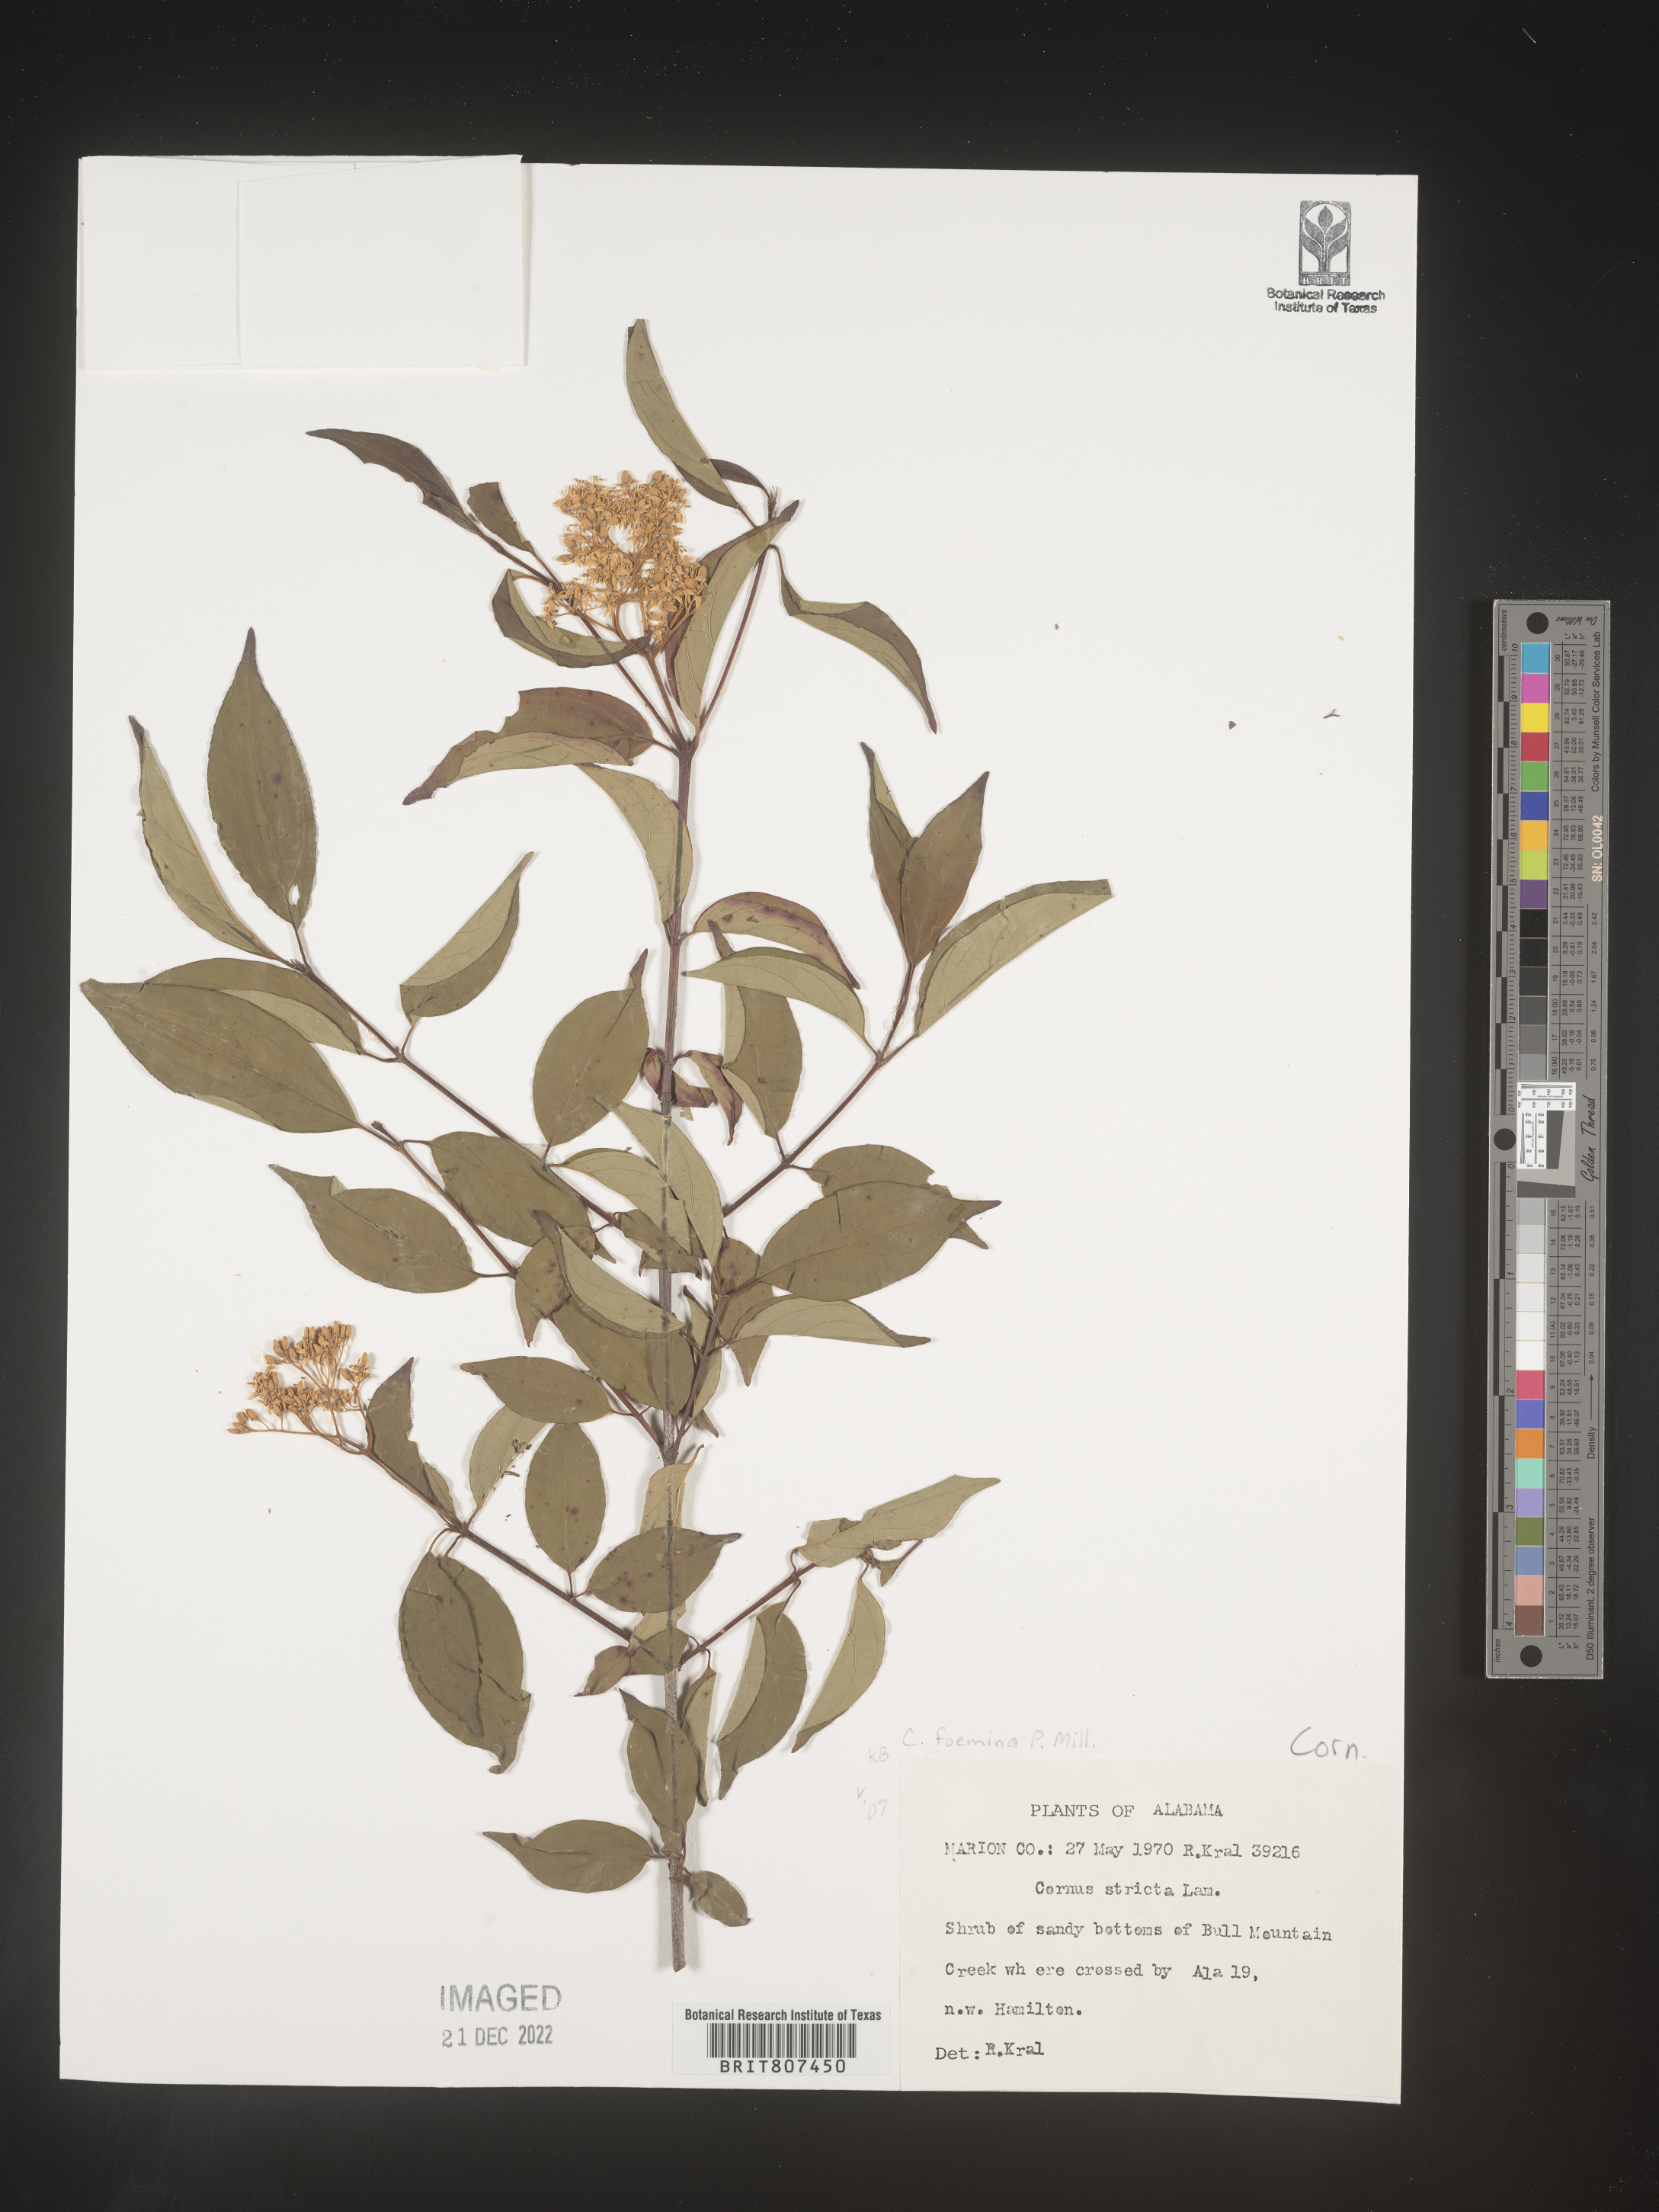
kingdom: Plantae
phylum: Tracheophyta
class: Magnoliopsida
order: Cornales
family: Cornaceae
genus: Cornus
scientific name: Cornus foemina
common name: Swamp dogwood
